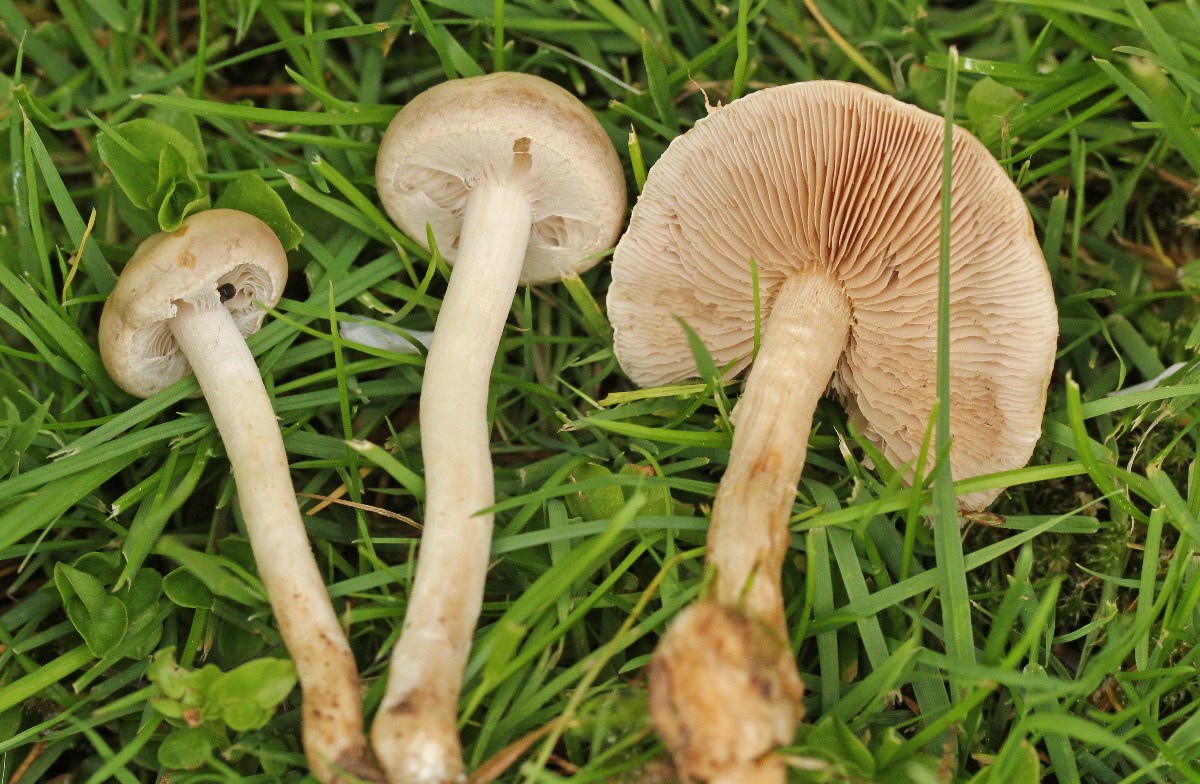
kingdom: Fungi
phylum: Basidiomycota
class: Agaricomycetes
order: Agaricales
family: Strophariaceae
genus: Agrocybe
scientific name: Agrocybe praecox
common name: tidlig agerhat
